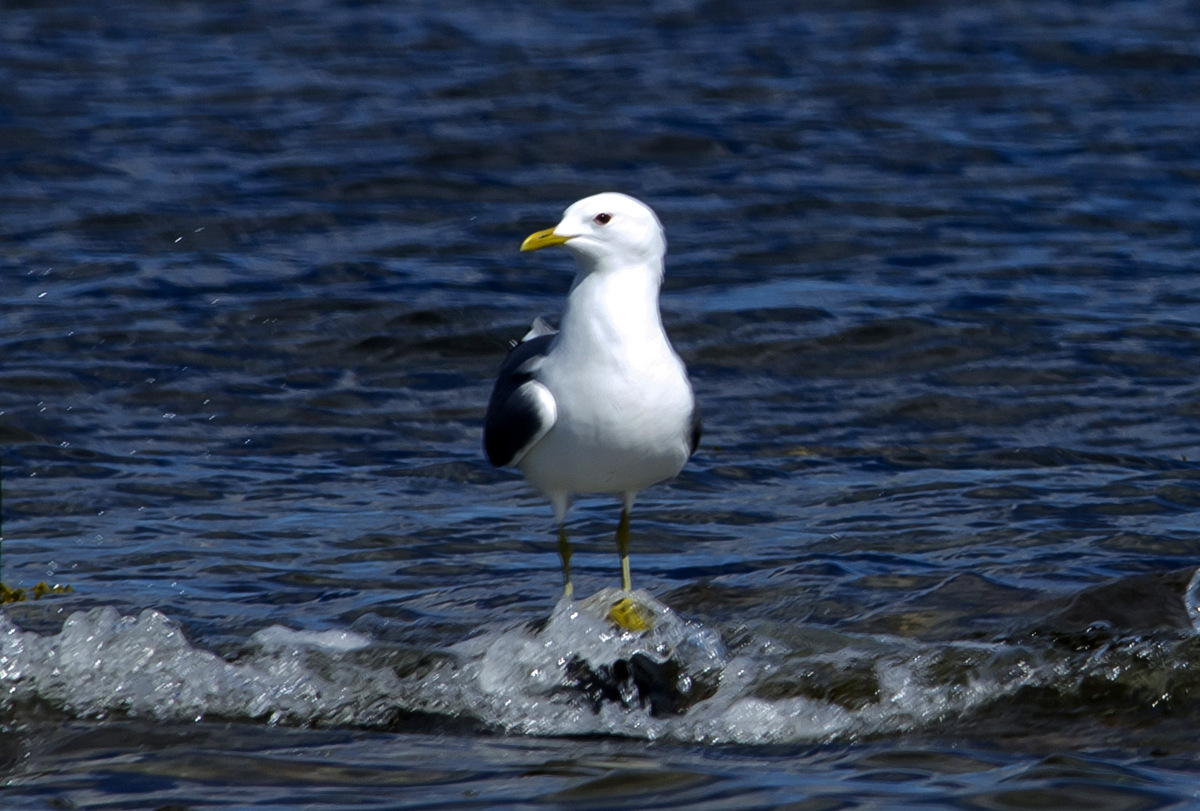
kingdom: Animalia
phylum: Chordata
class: Aves
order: Charadriiformes
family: Laridae
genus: Larus
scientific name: Larus canus
